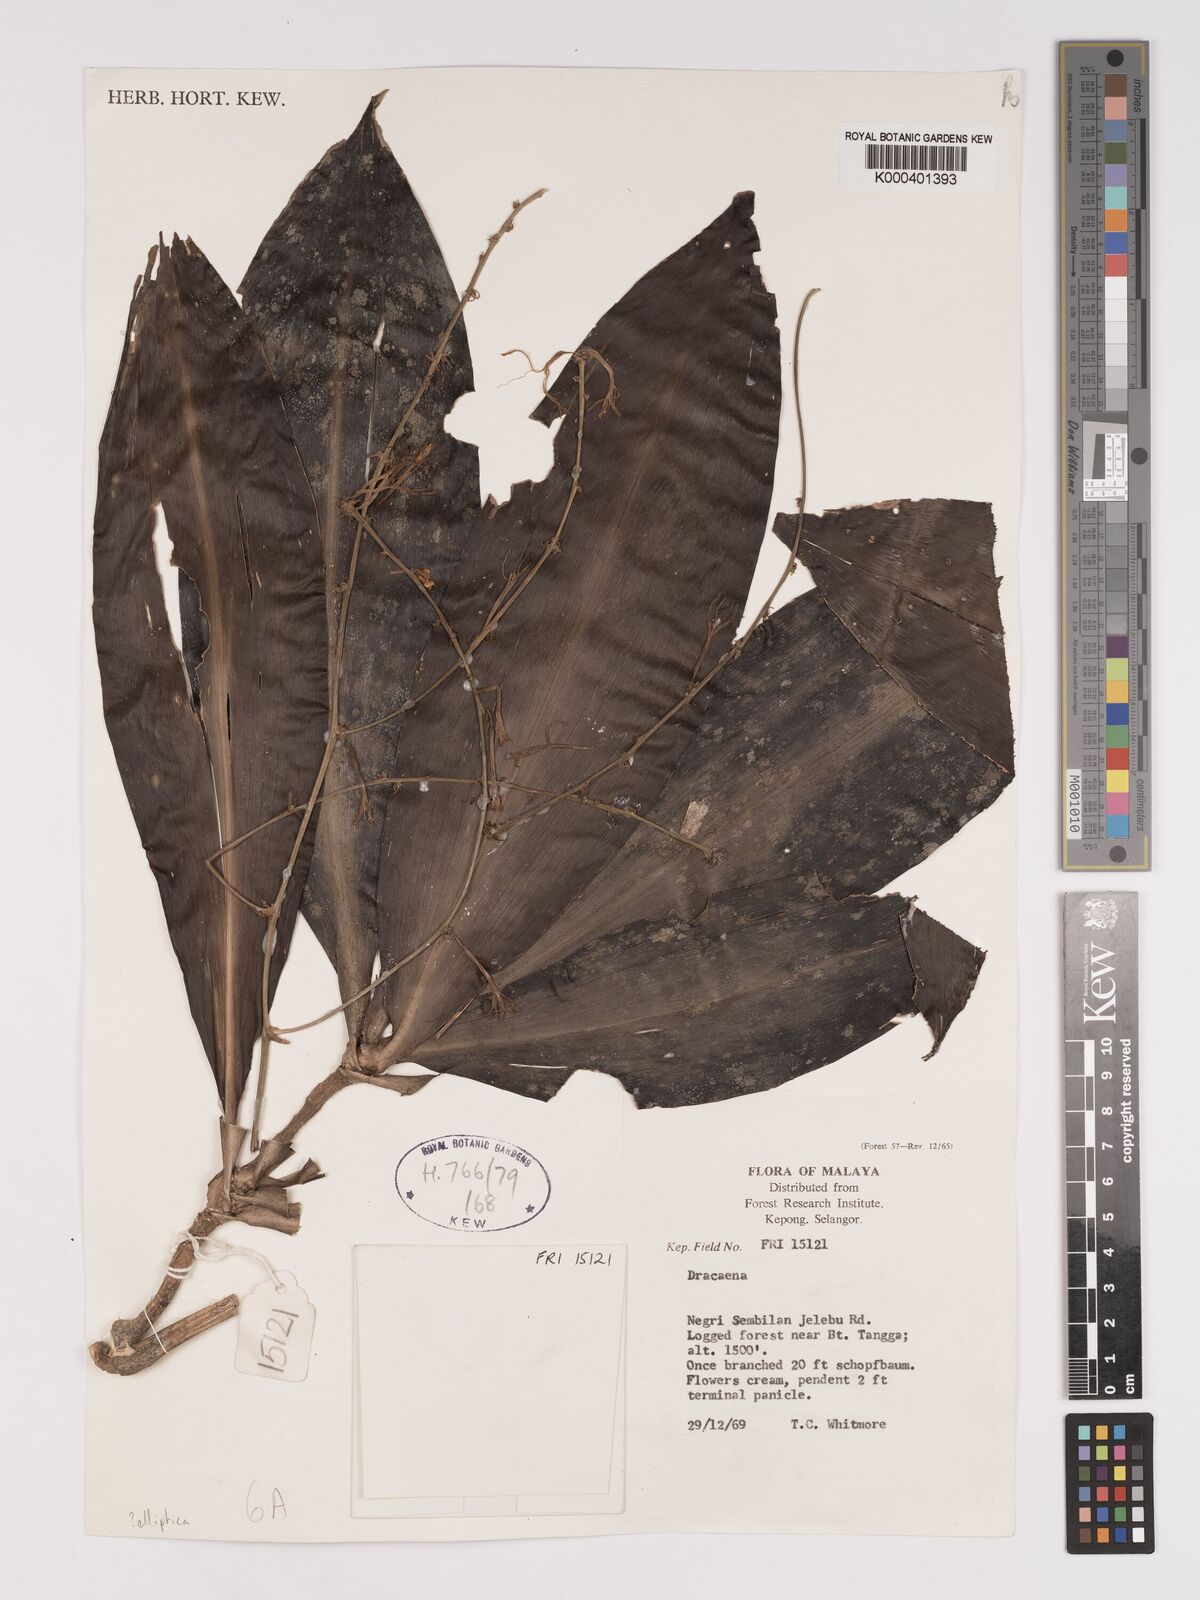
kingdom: Plantae
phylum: Tracheophyta
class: Liliopsida
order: Asparagales
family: Asparagaceae
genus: Dracaena
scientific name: Dracaena
